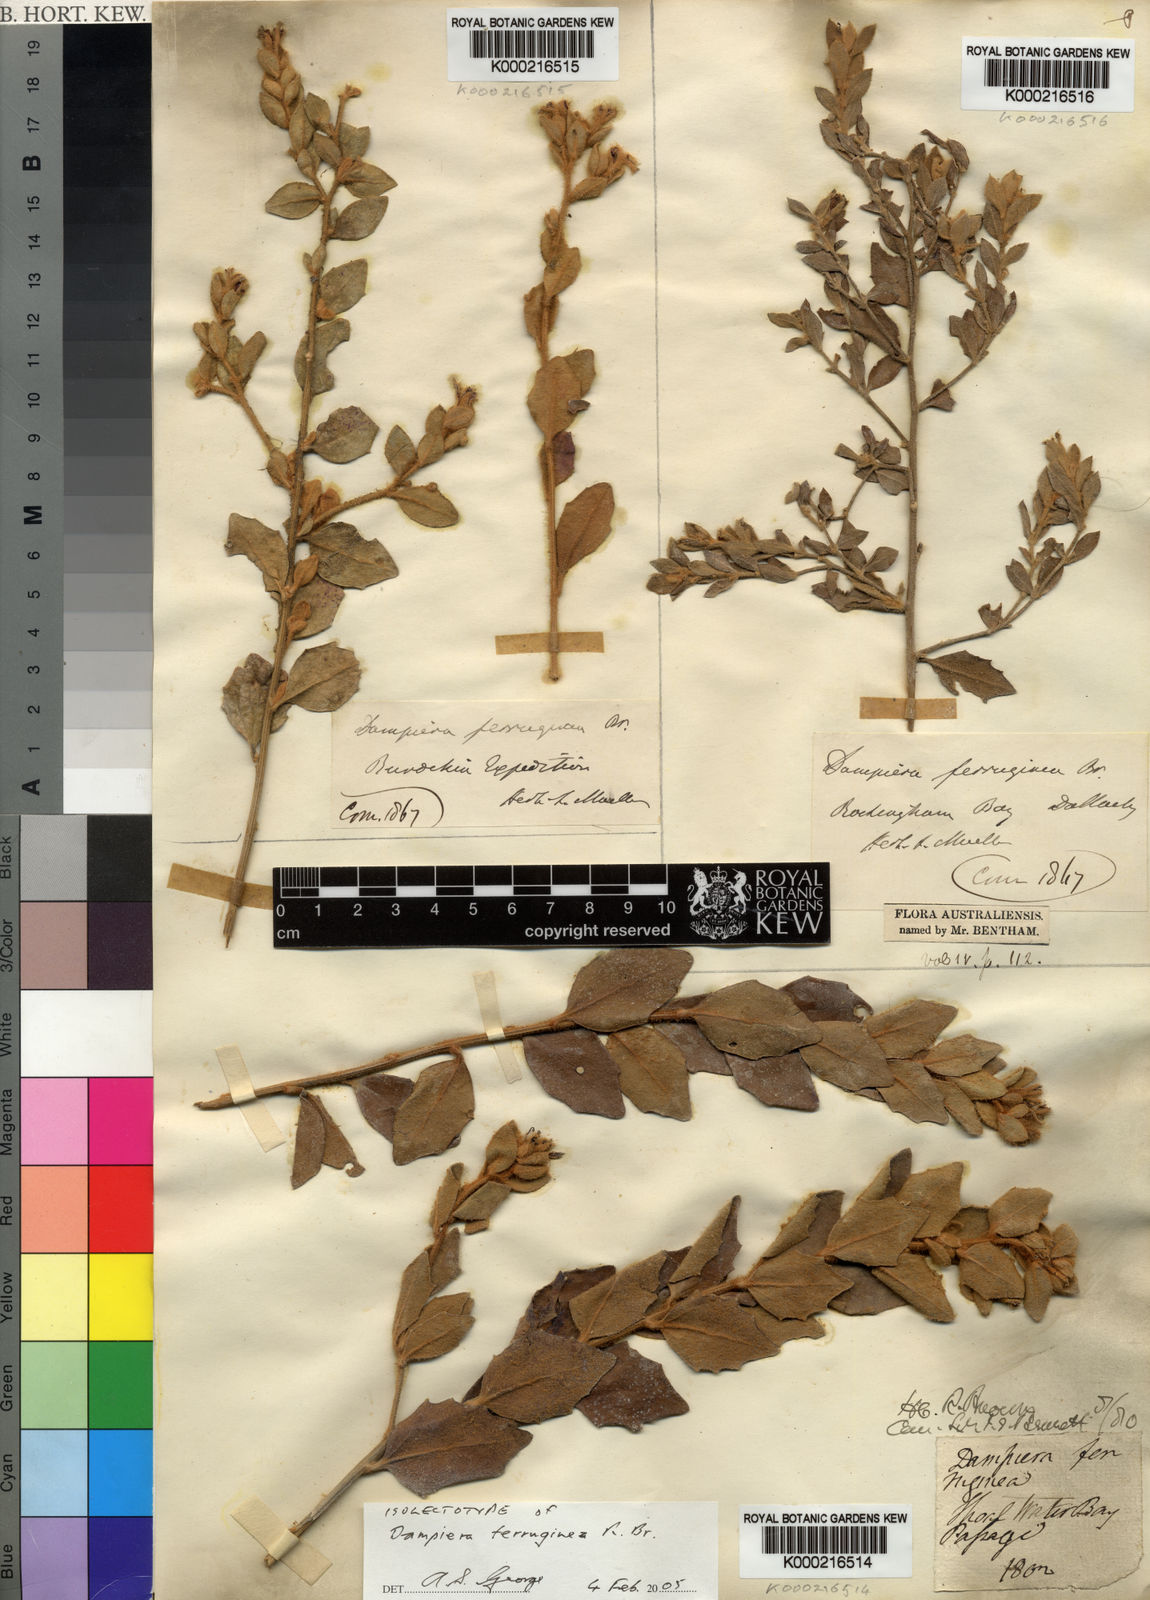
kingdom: Plantae
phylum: Tracheophyta
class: Magnoliopsida
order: Asterales
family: Goodeniaceae
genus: Dampiera
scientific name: Dampiera ferruginea
